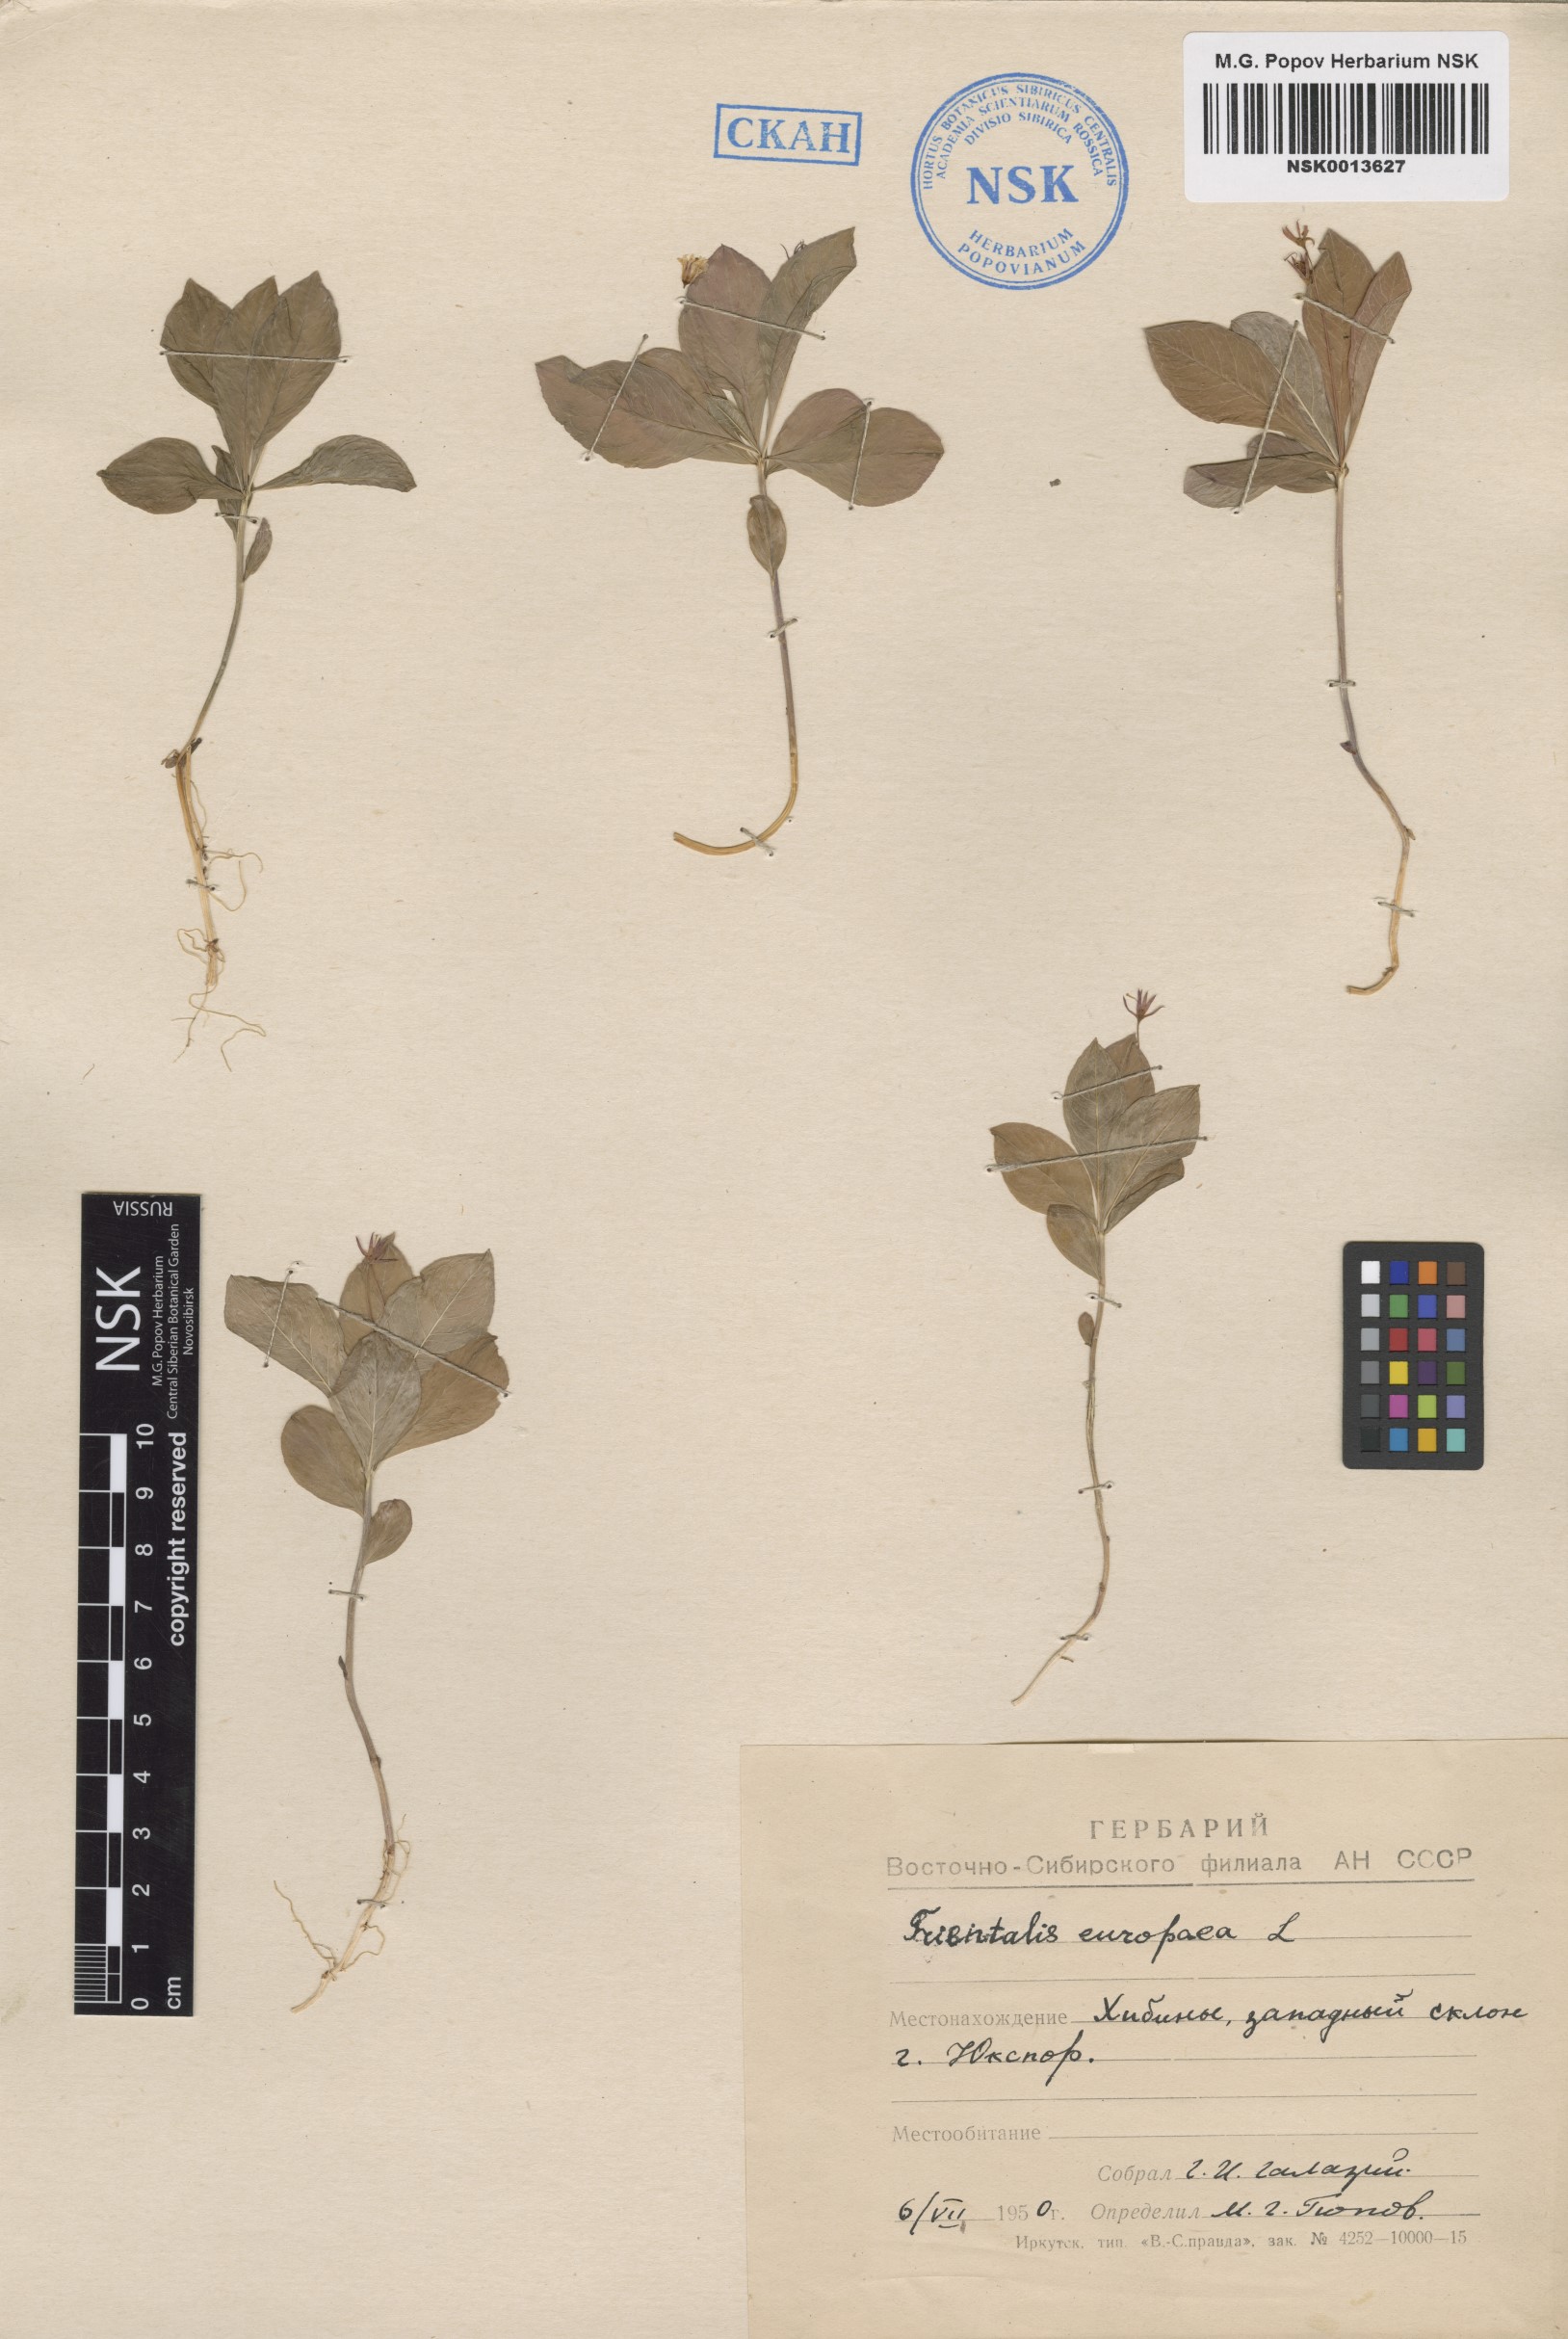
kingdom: Plantae
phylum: Tracheophyta
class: Magnoliopsida
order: Ericales
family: Primulaceae
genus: Lysimachia
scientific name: Lysimachia europaea
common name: Arctic starflower
